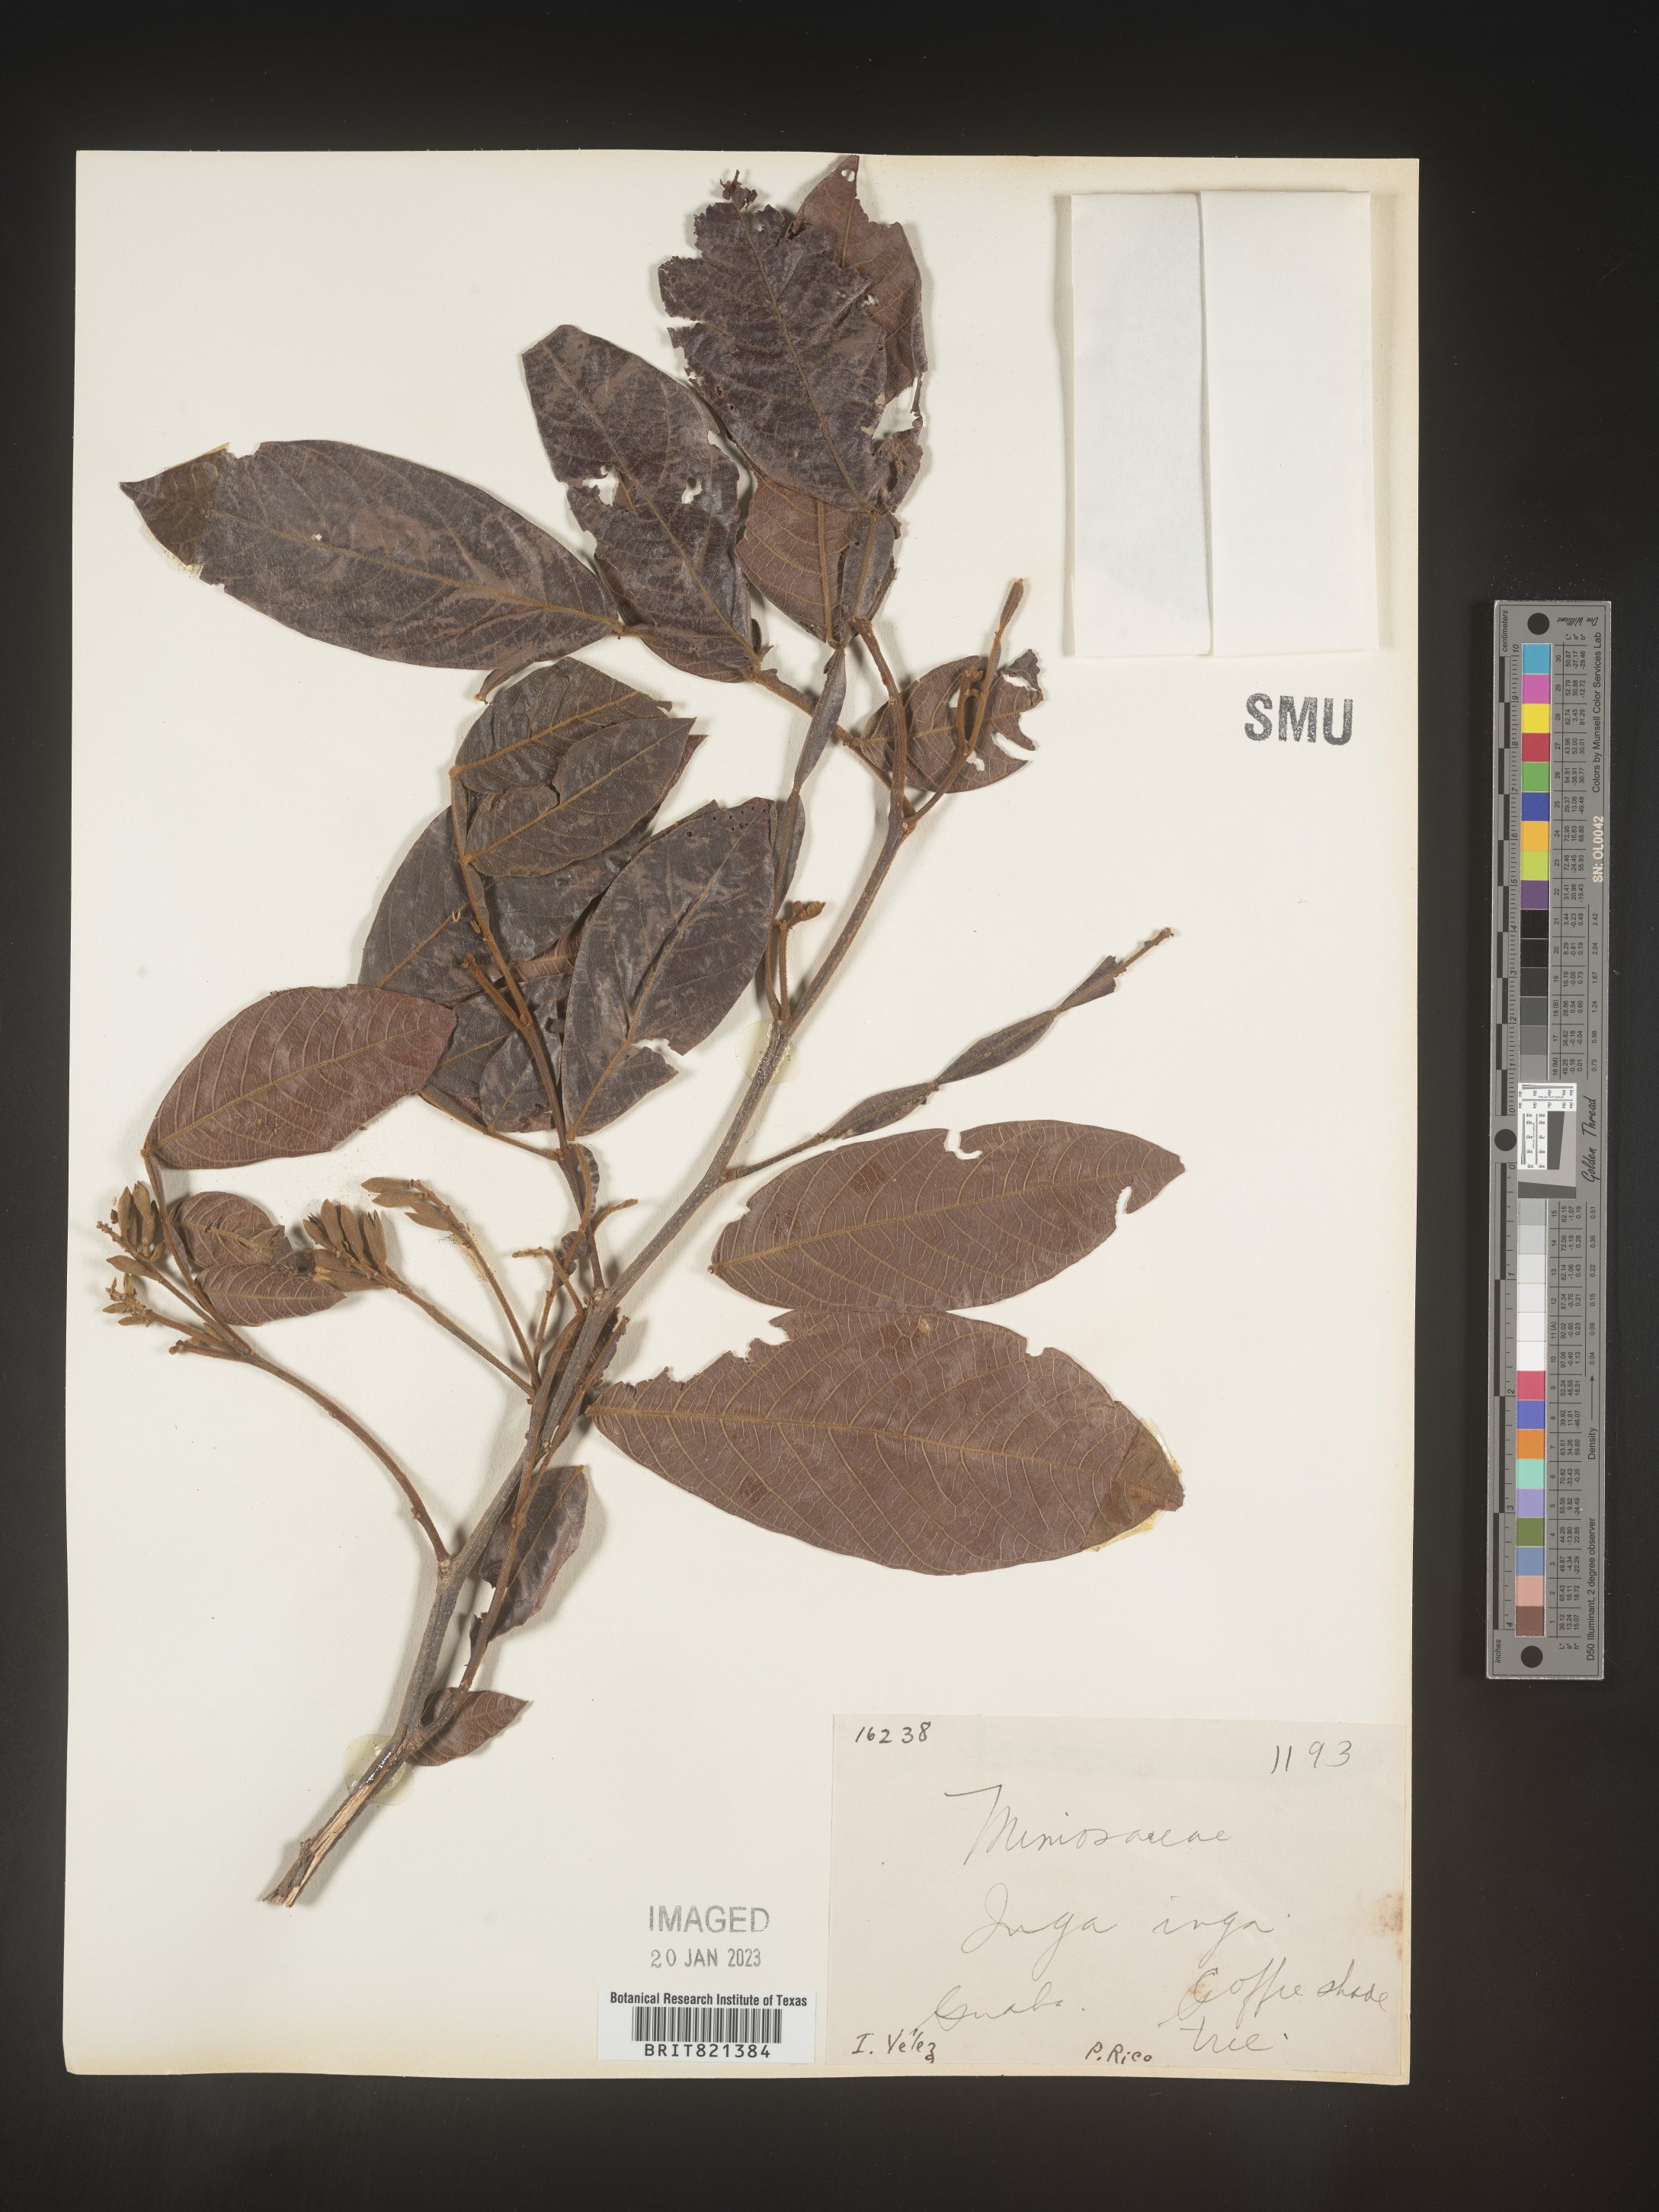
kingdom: Plantae
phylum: Tracheophyta
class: Magnoliopsida
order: Fabales
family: Fabaceae
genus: Inga
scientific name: Inga
